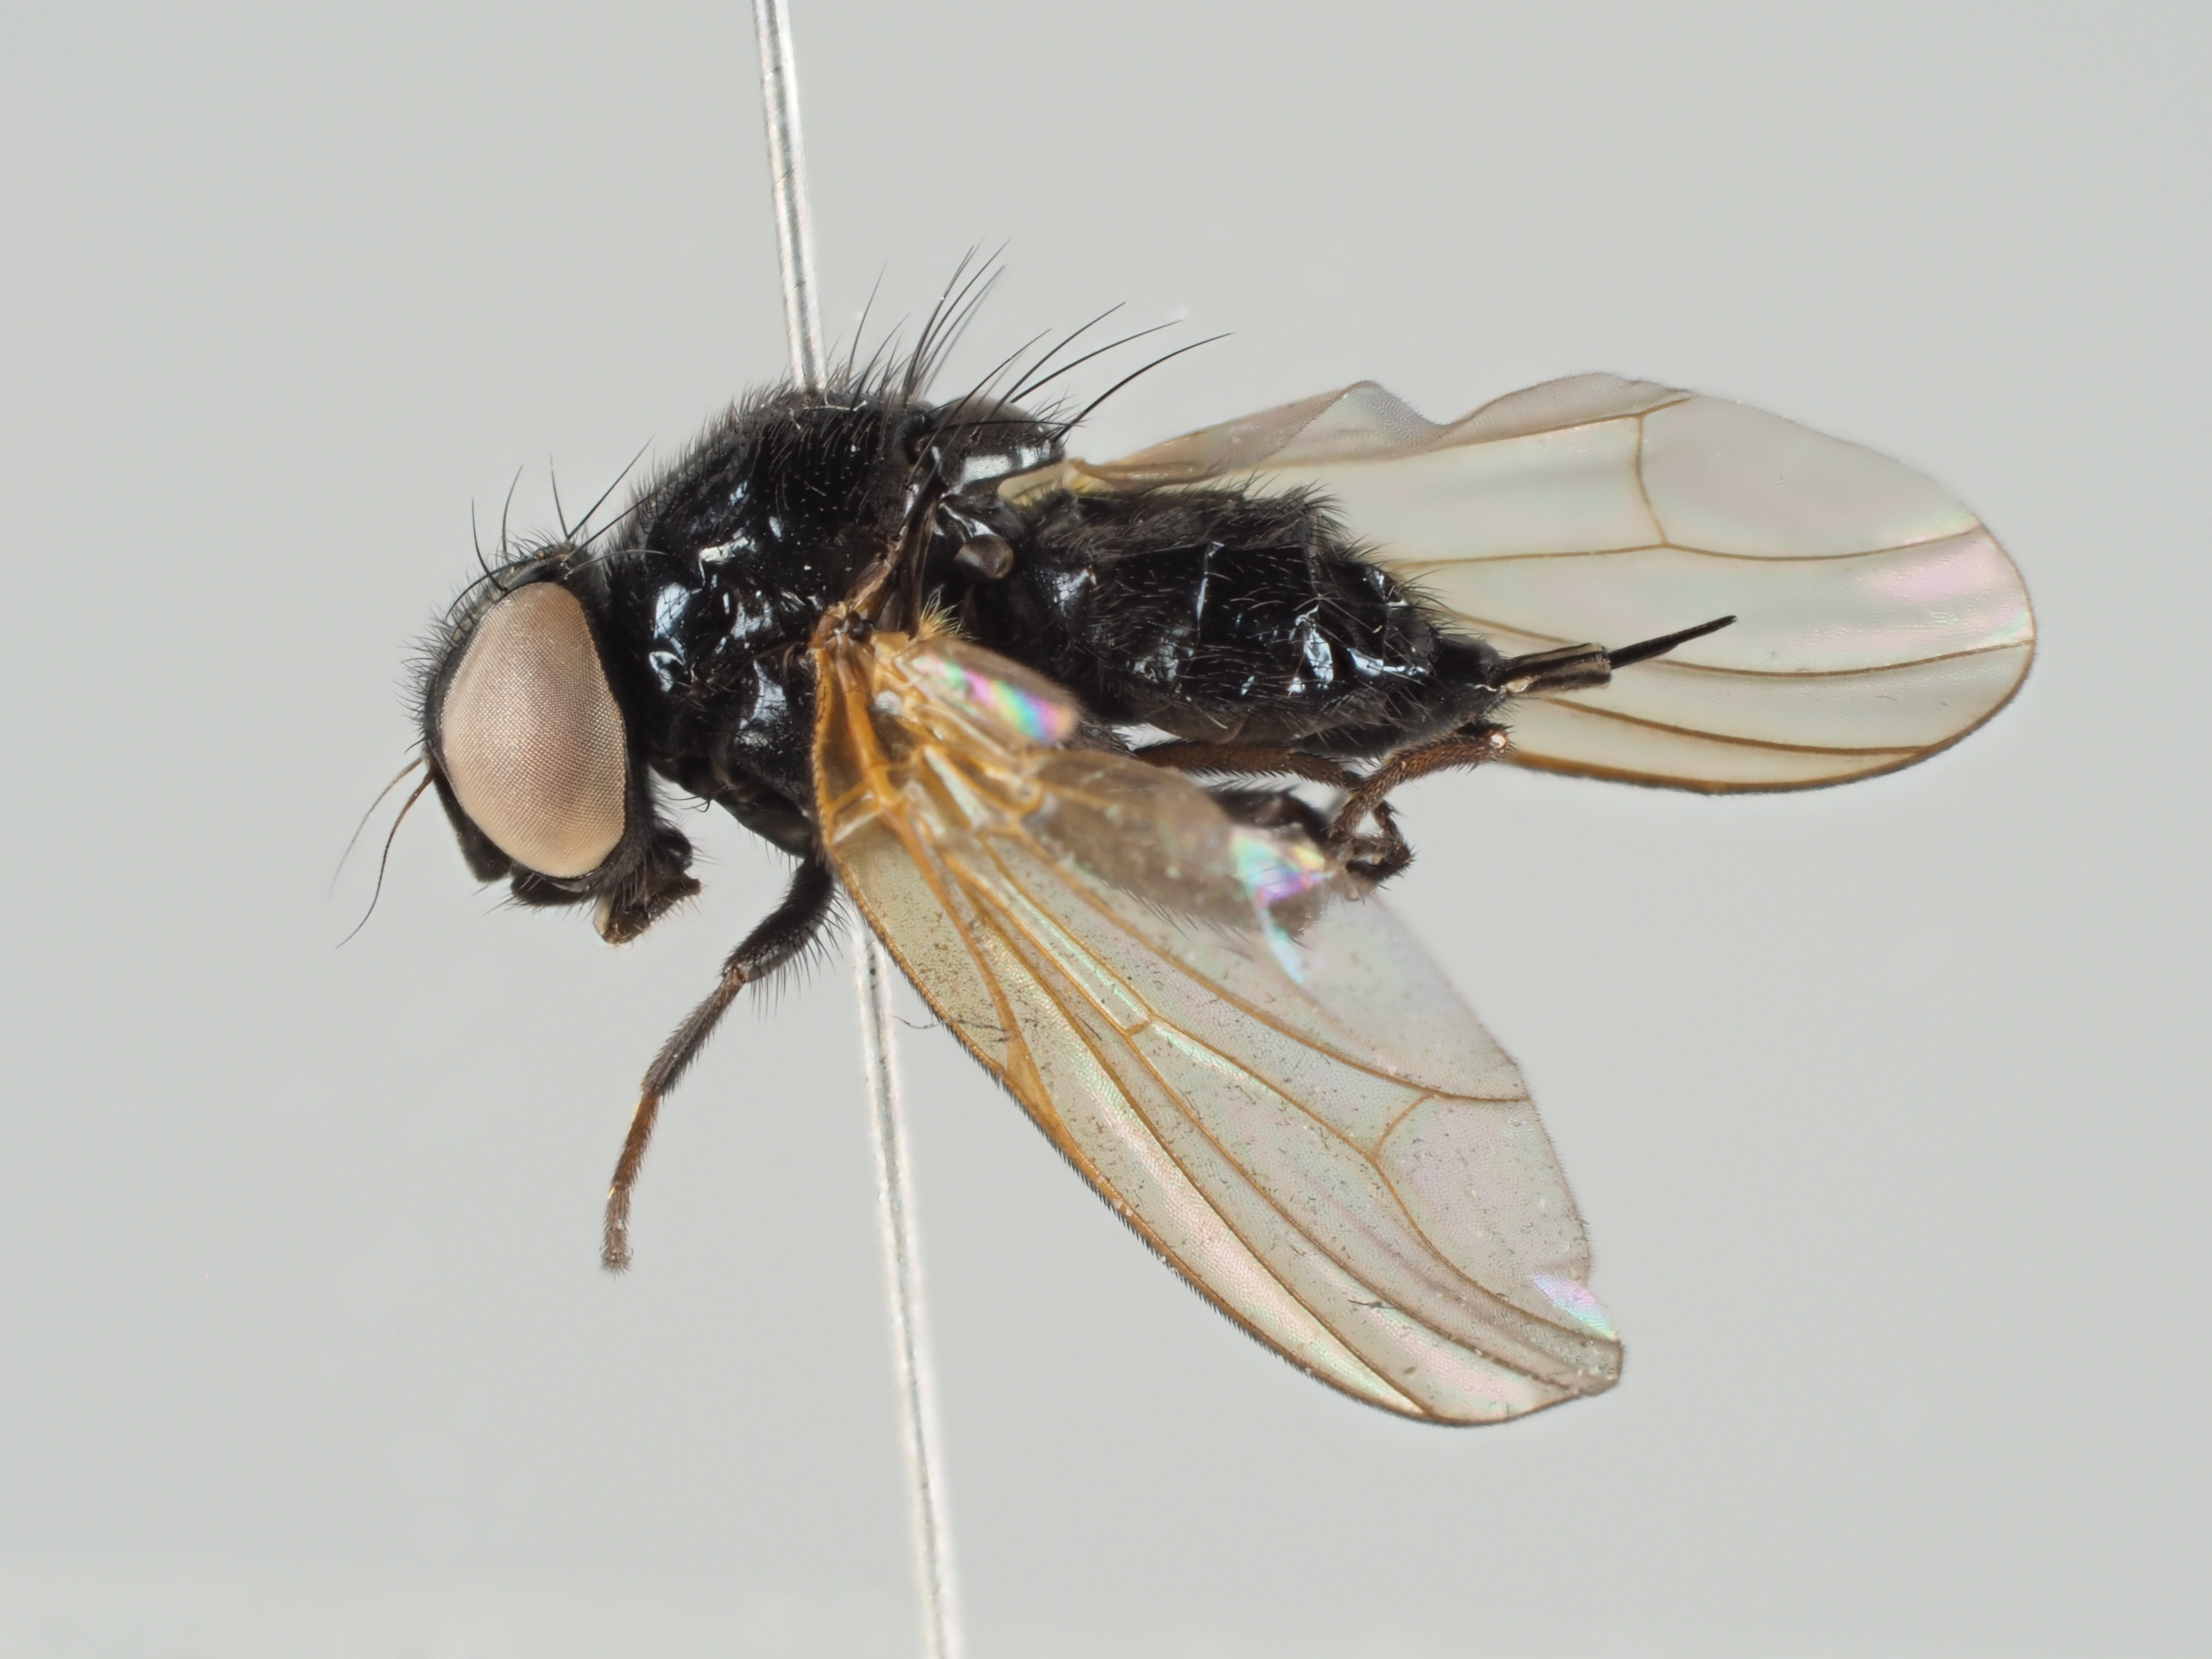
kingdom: Animalia
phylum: Arthropoda
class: Insecta
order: Diptera
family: Lonchaeidae
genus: Lonchaea
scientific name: Lonchaea bukowskii
